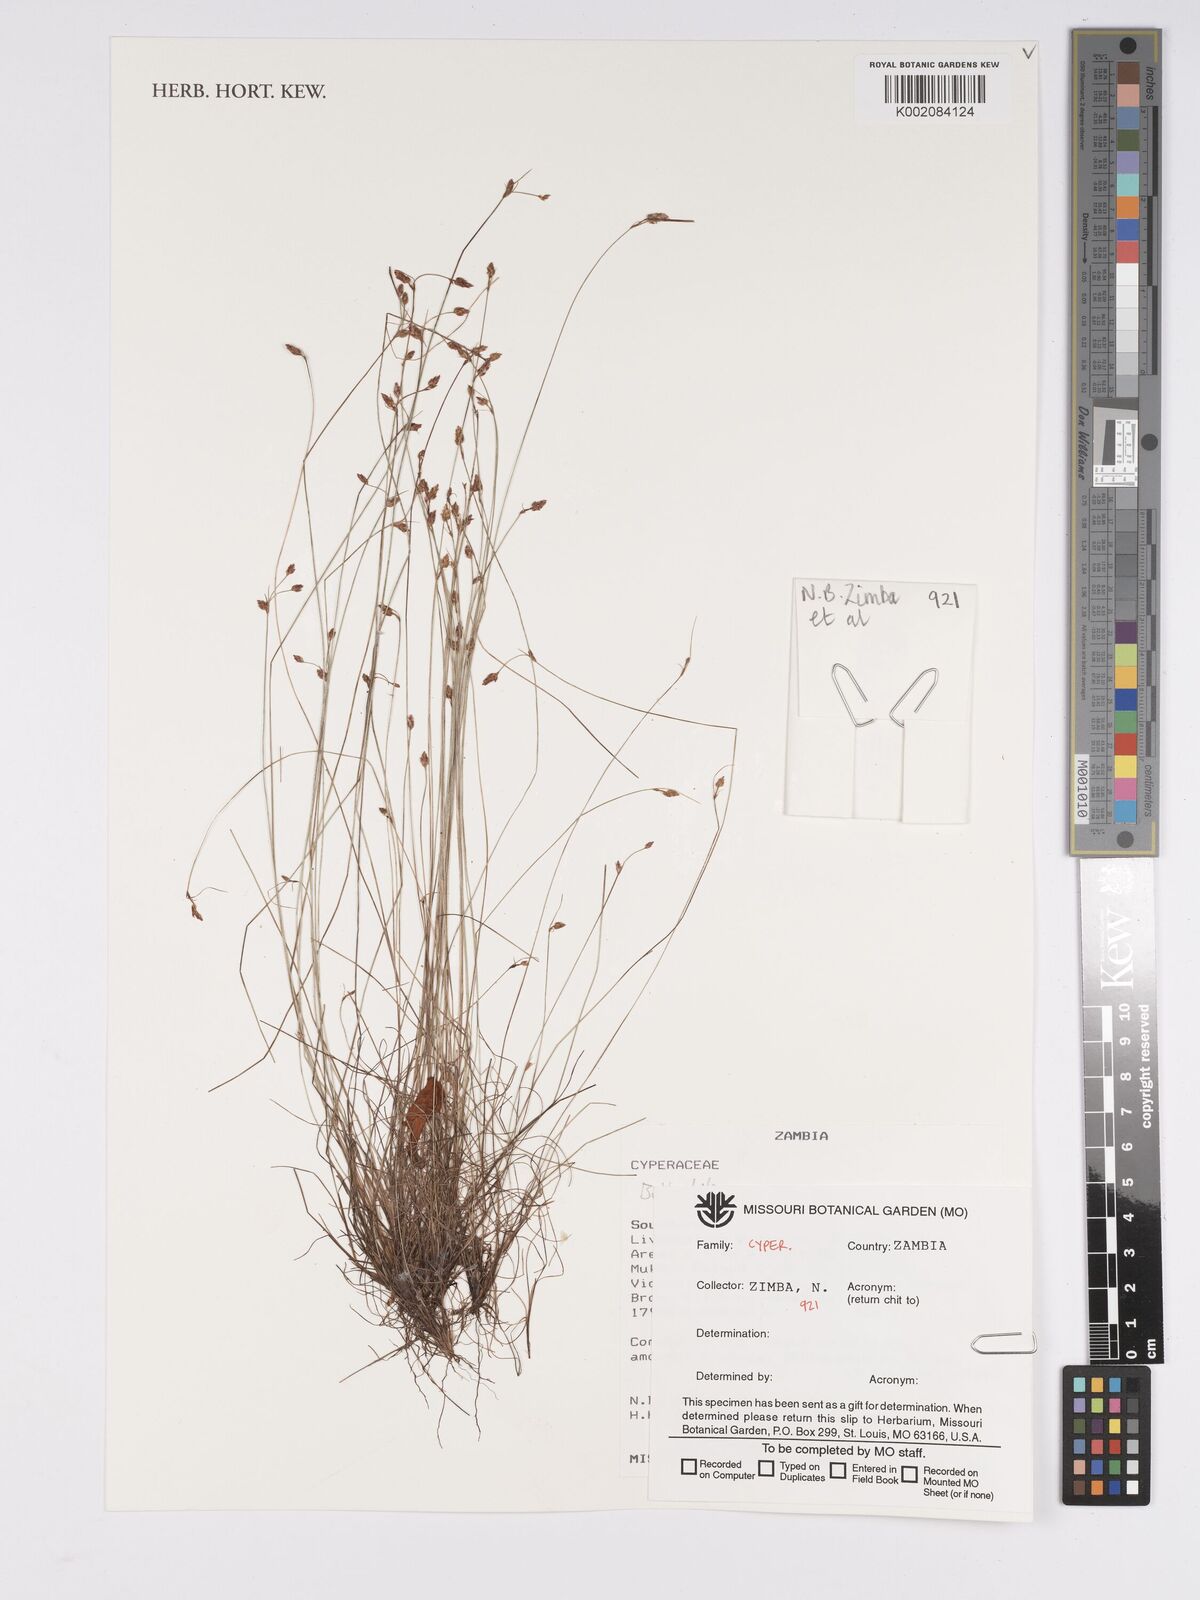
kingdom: Plantae
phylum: Tracheophyta
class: Liliopsida
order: Poales
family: Cyperaceae
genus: Bulbostylis
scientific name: Bulbostylis
